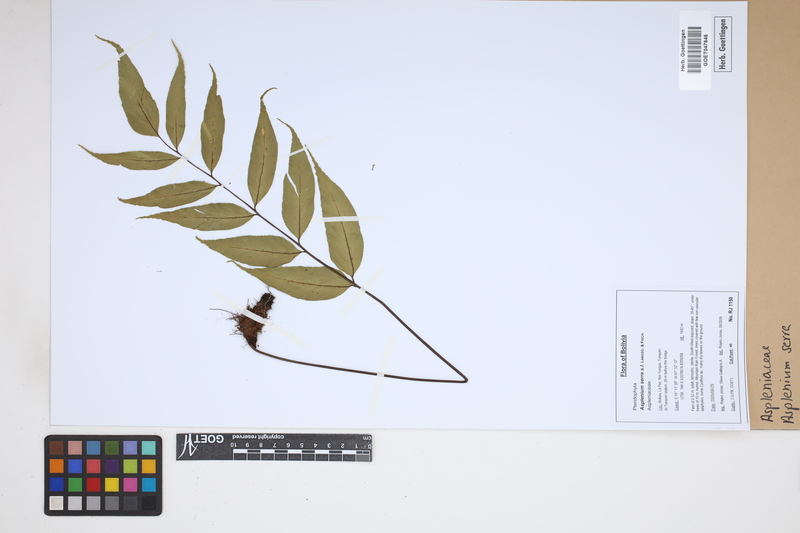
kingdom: Plantae
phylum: Tracheophyta
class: Polypodiopsida
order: Polypodiales
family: Aspleniaceae
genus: Asplenium
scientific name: Asplenium serra
